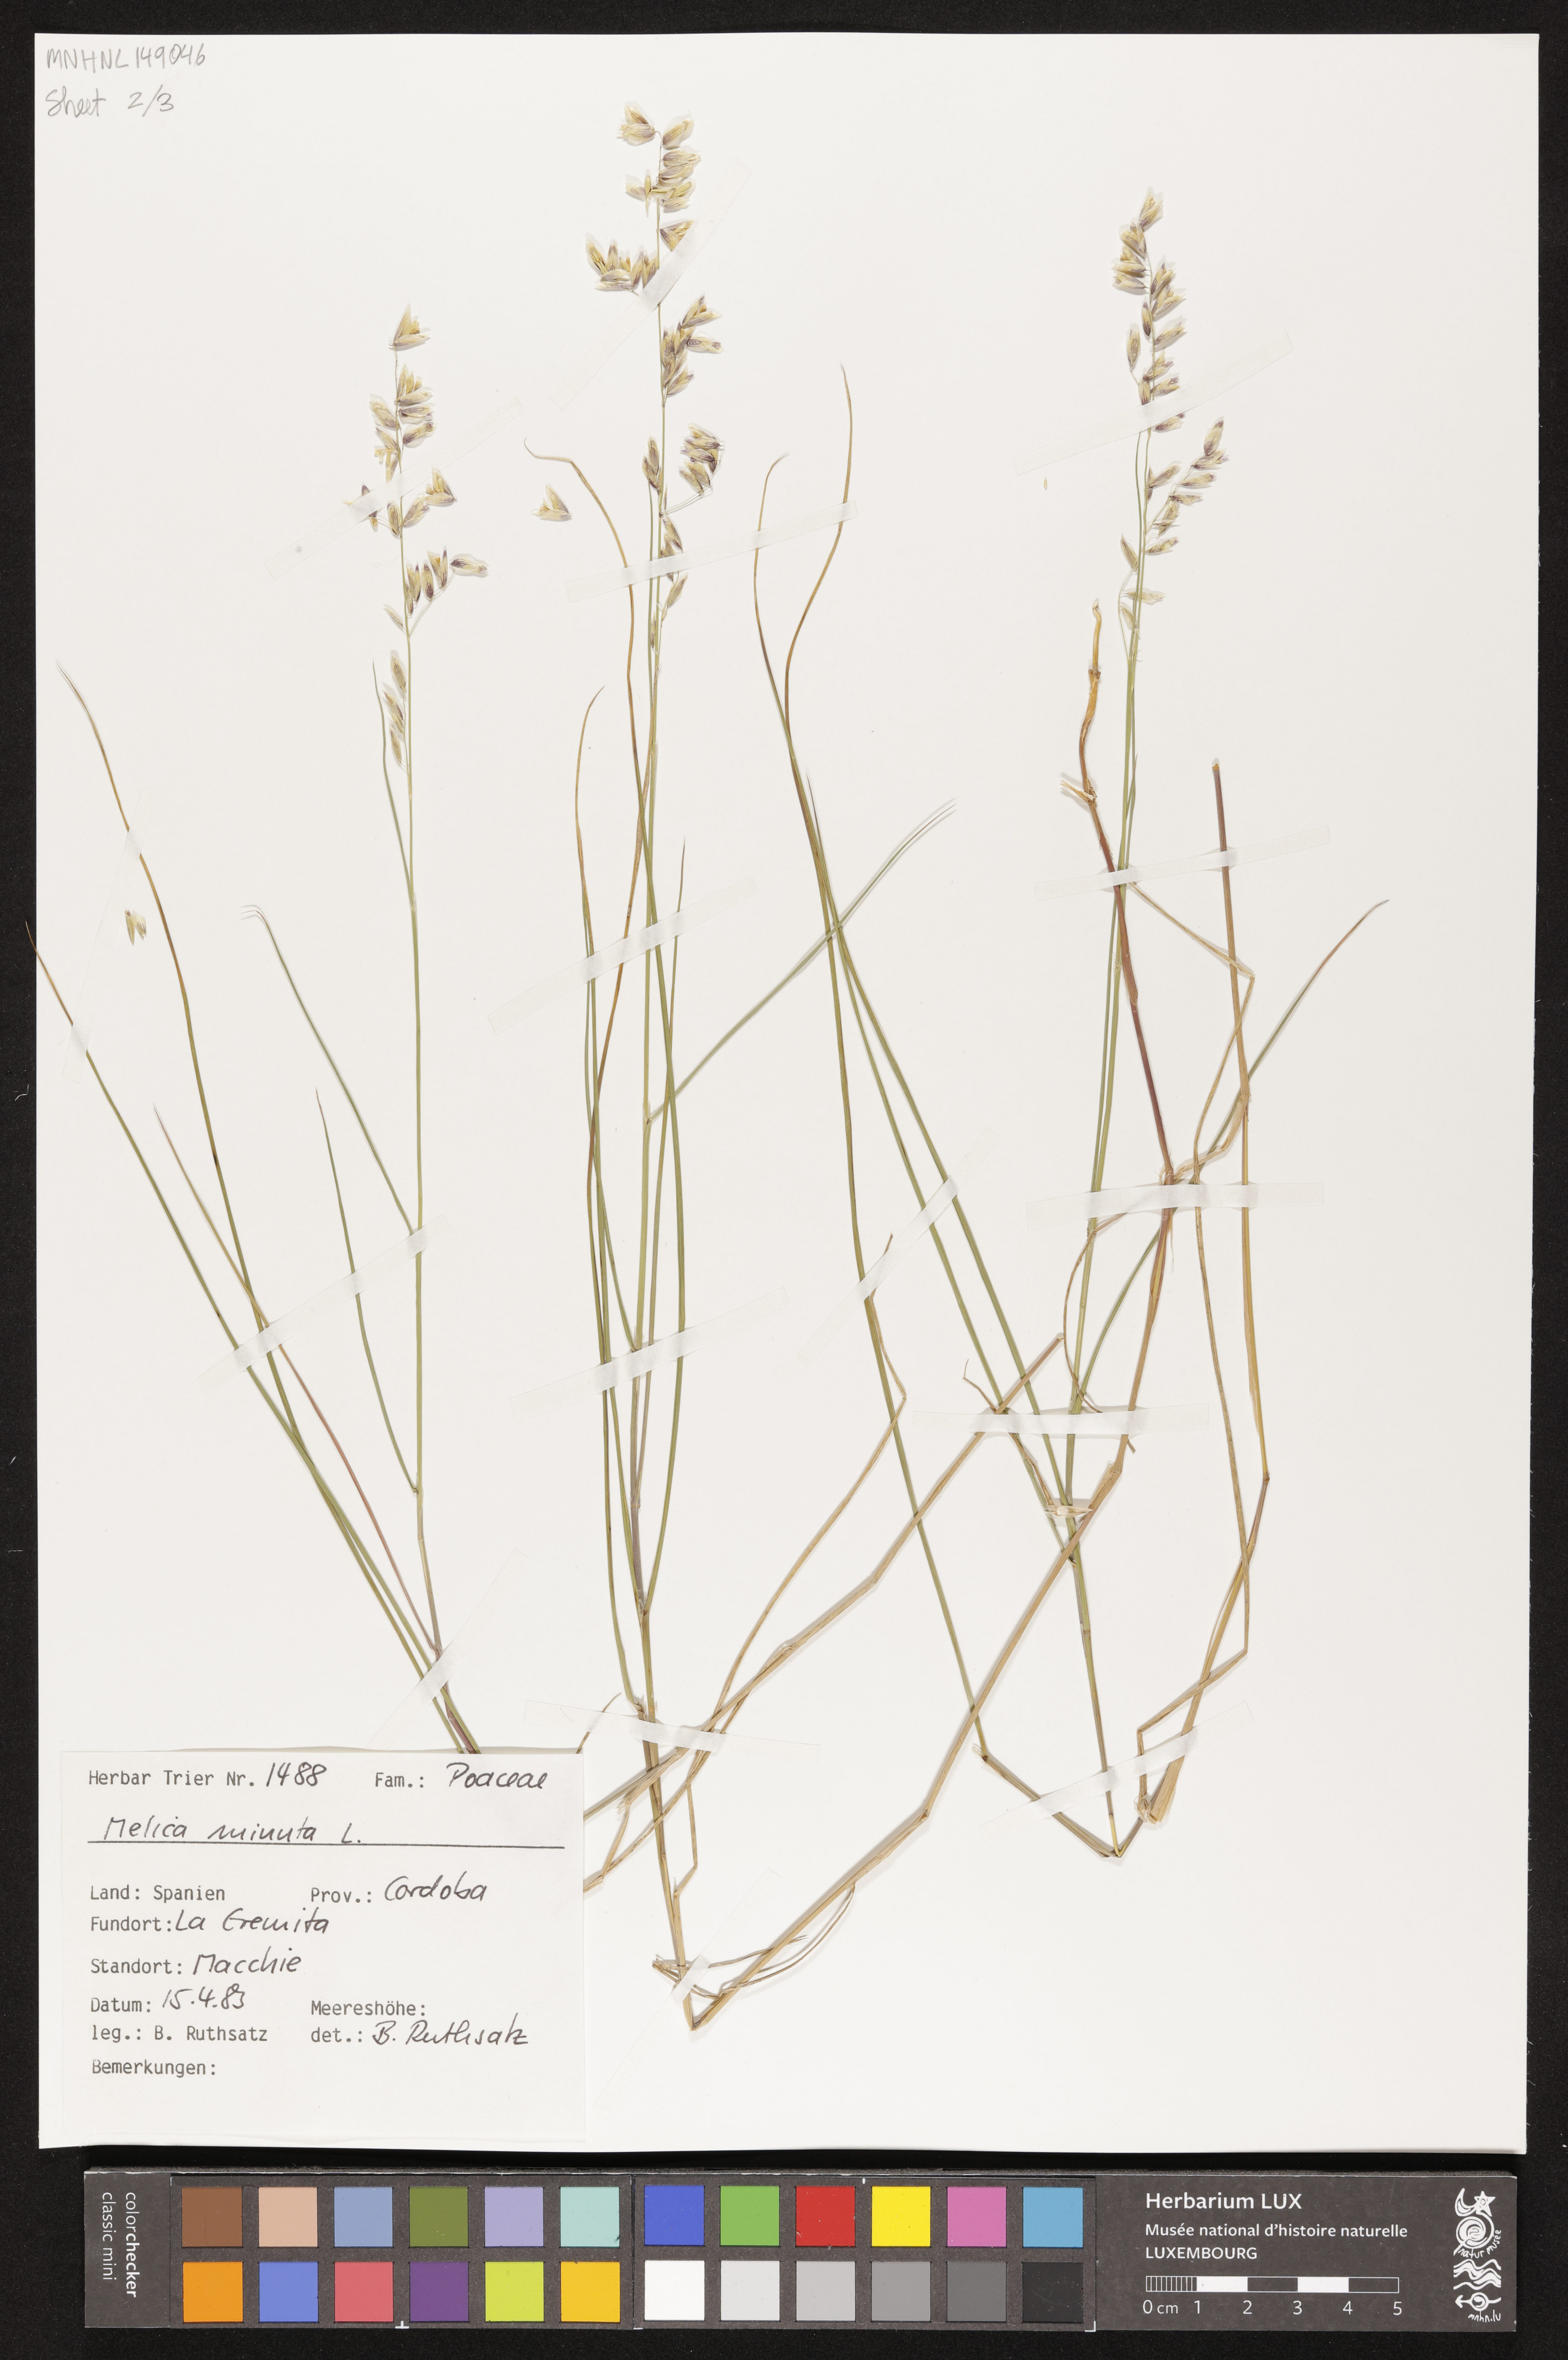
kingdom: Plantae
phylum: Tracheophyta
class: Liliopsida
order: Poales
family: Poaceae
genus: Melica
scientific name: Melica minuta
